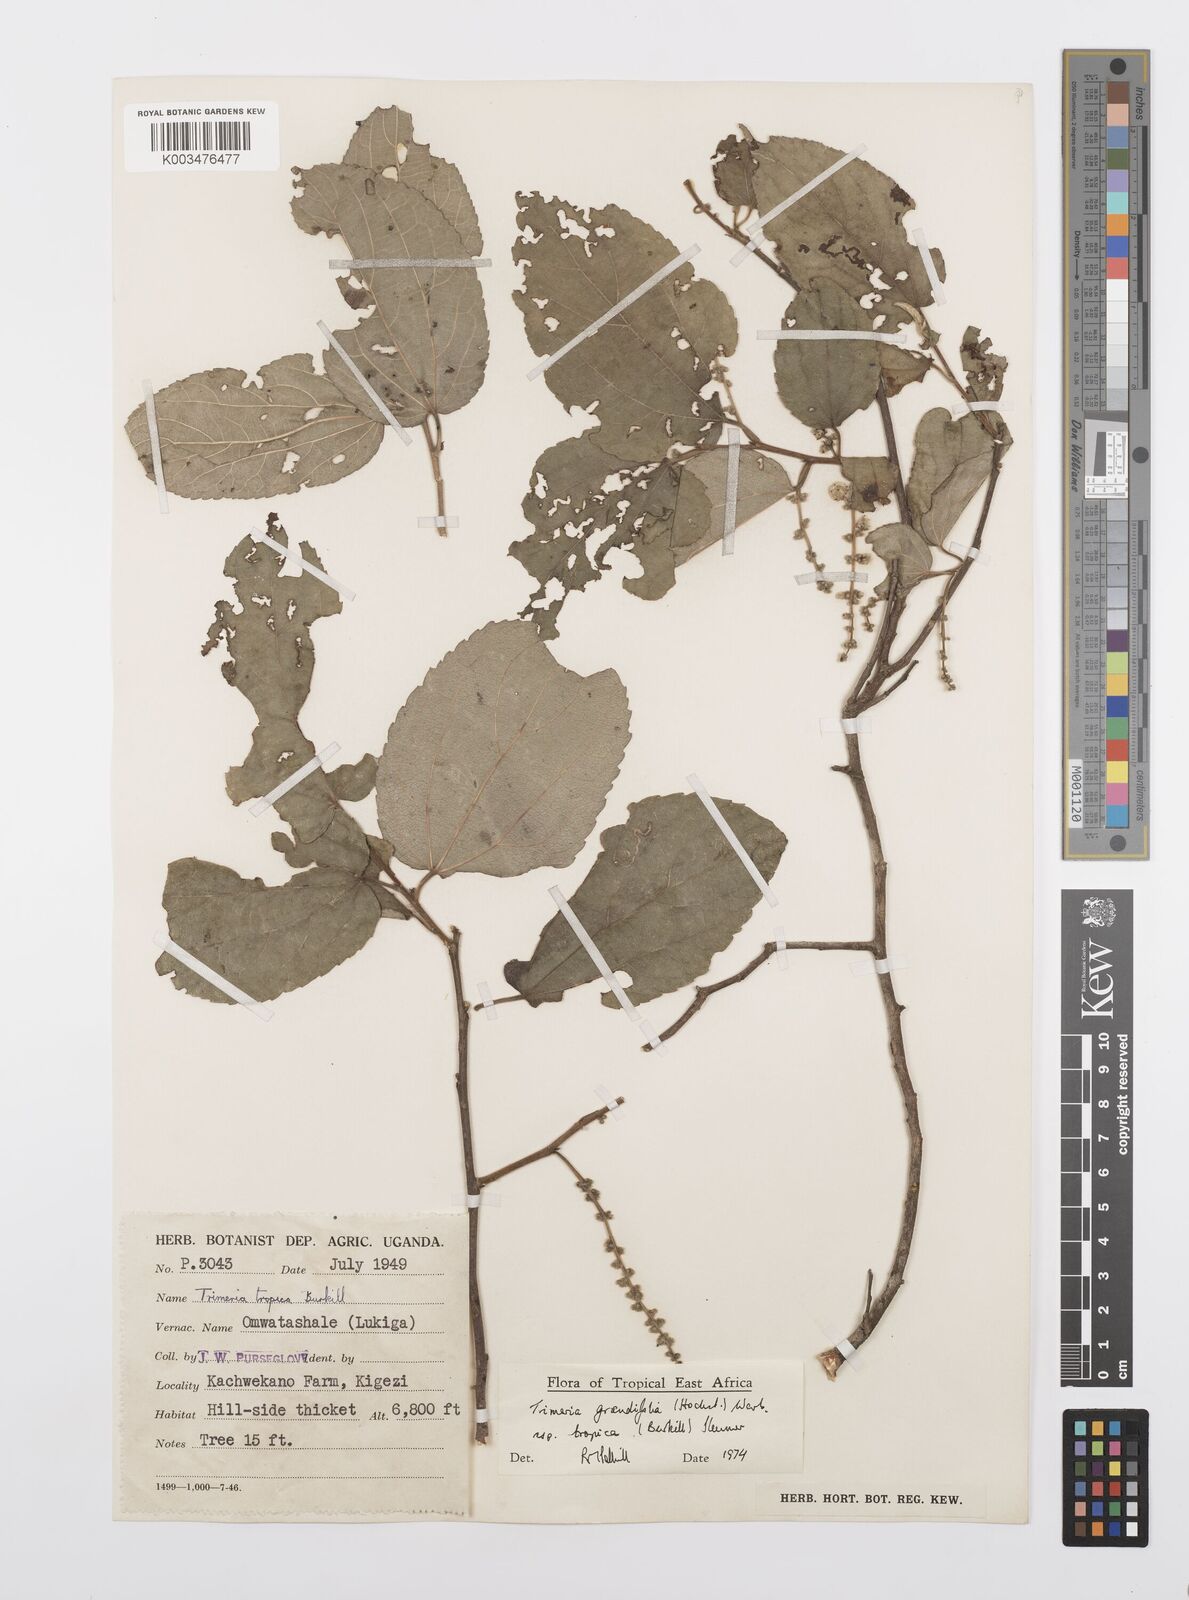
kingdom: Plantae
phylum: Tracheophyta
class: Magnoliopsida
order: Malpighiales
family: Salicaceae
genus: Trimeria
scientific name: Trimeria grandifolia
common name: Wild mulberry
